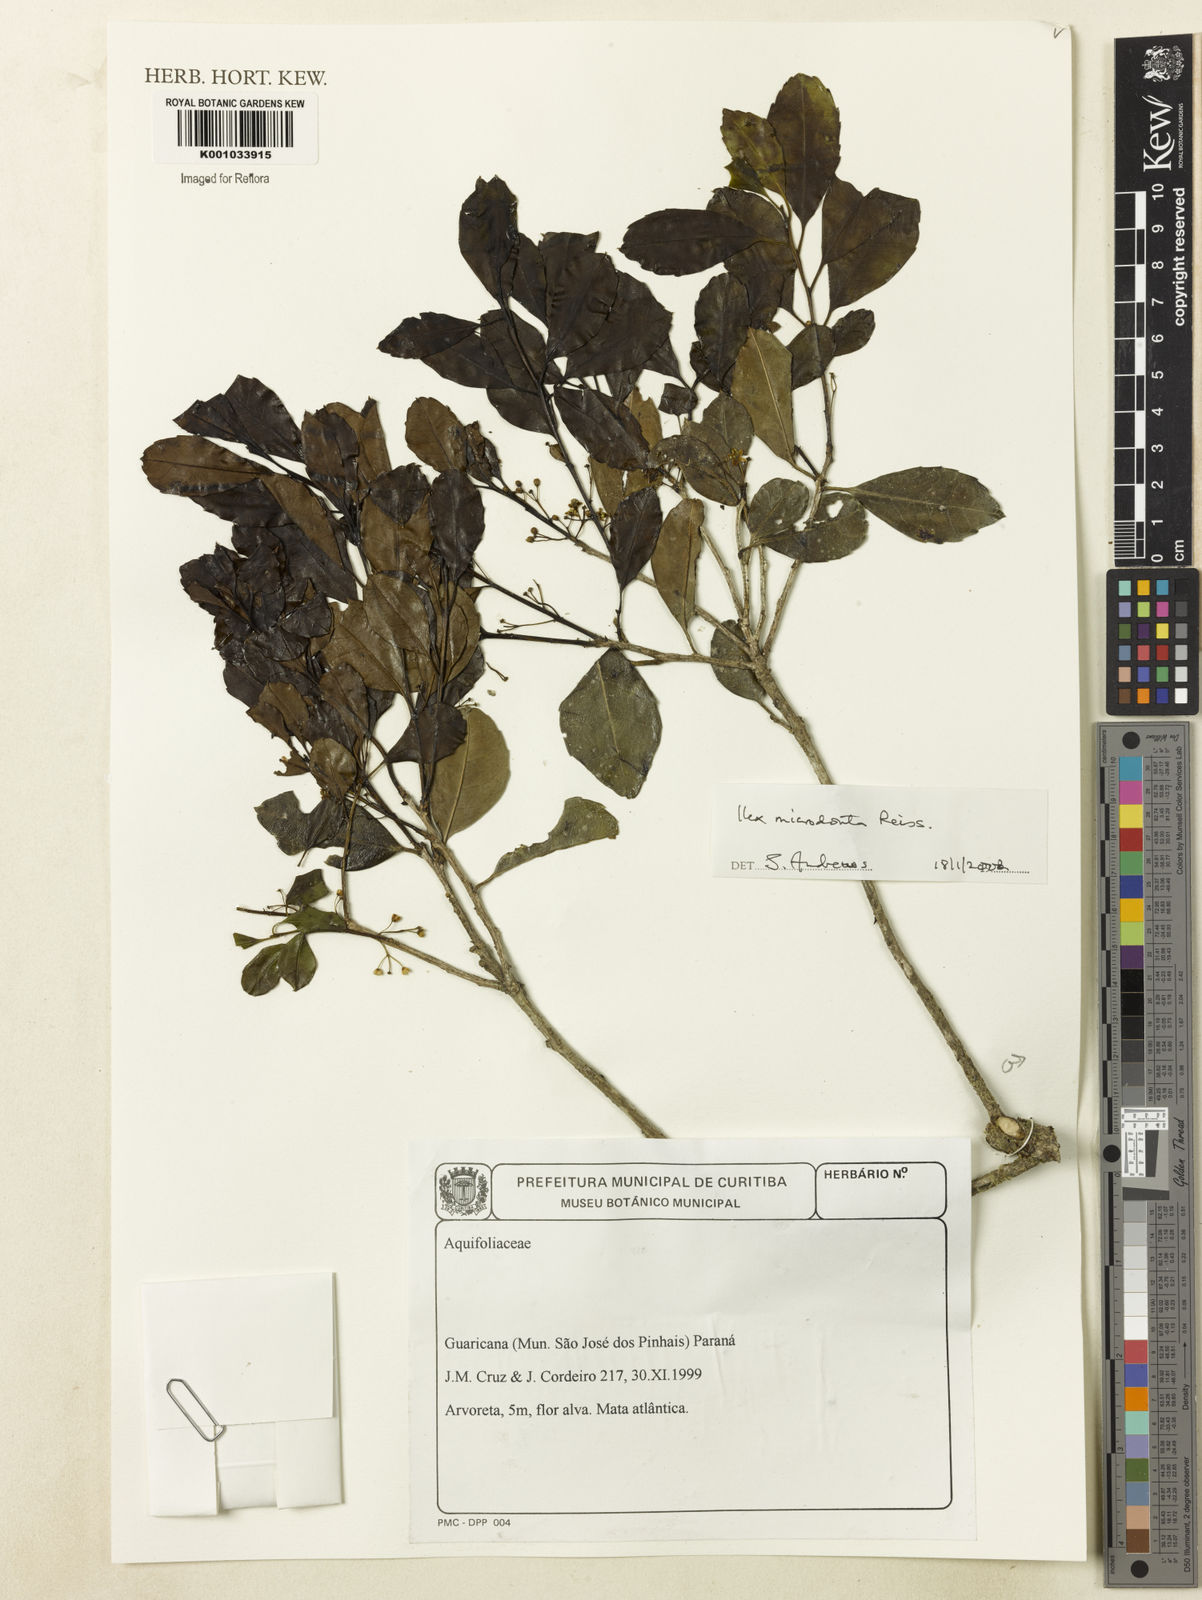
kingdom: Plantae
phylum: Tracheophyta
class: Magnoliopsida
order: Aquifoliales
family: Aquifoliaceae
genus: Ilex
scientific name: Ilex microdonta
